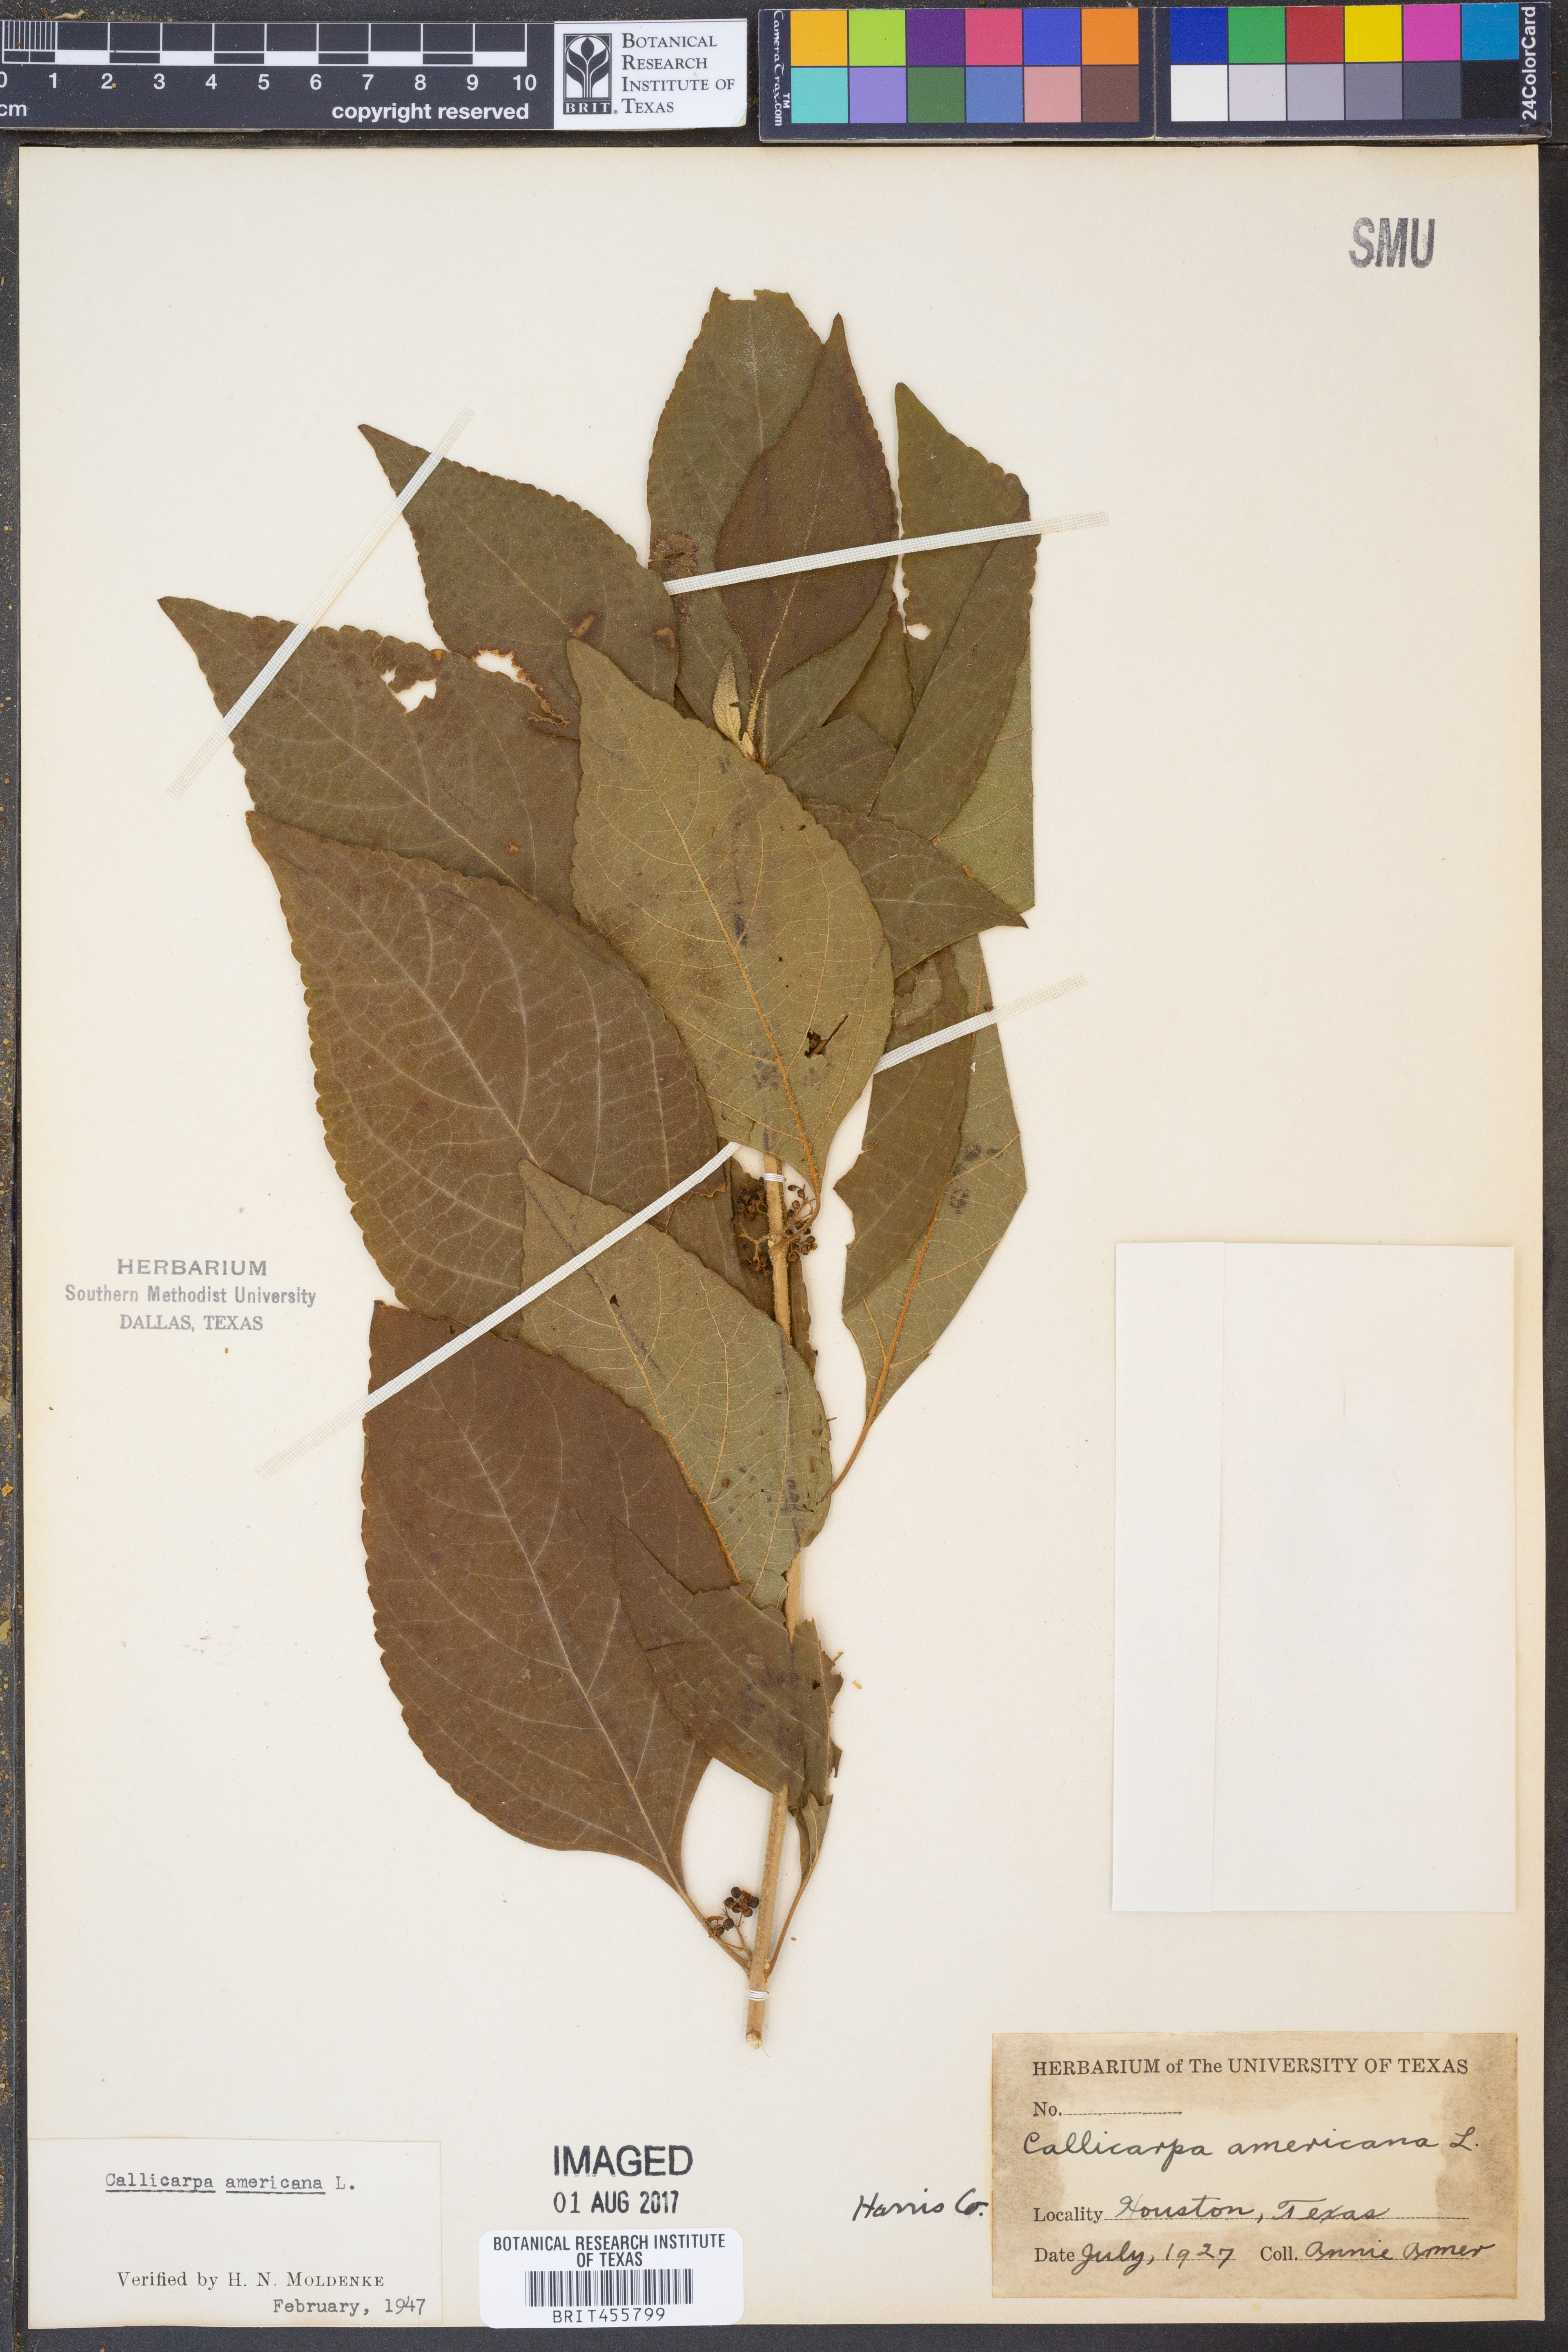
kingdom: Plantae
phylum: Tracheophyta
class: Magnoliopsida
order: Lamiales
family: Lamiaceae
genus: Callicarpa
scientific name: Callicarpa americana
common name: American beautyberry
